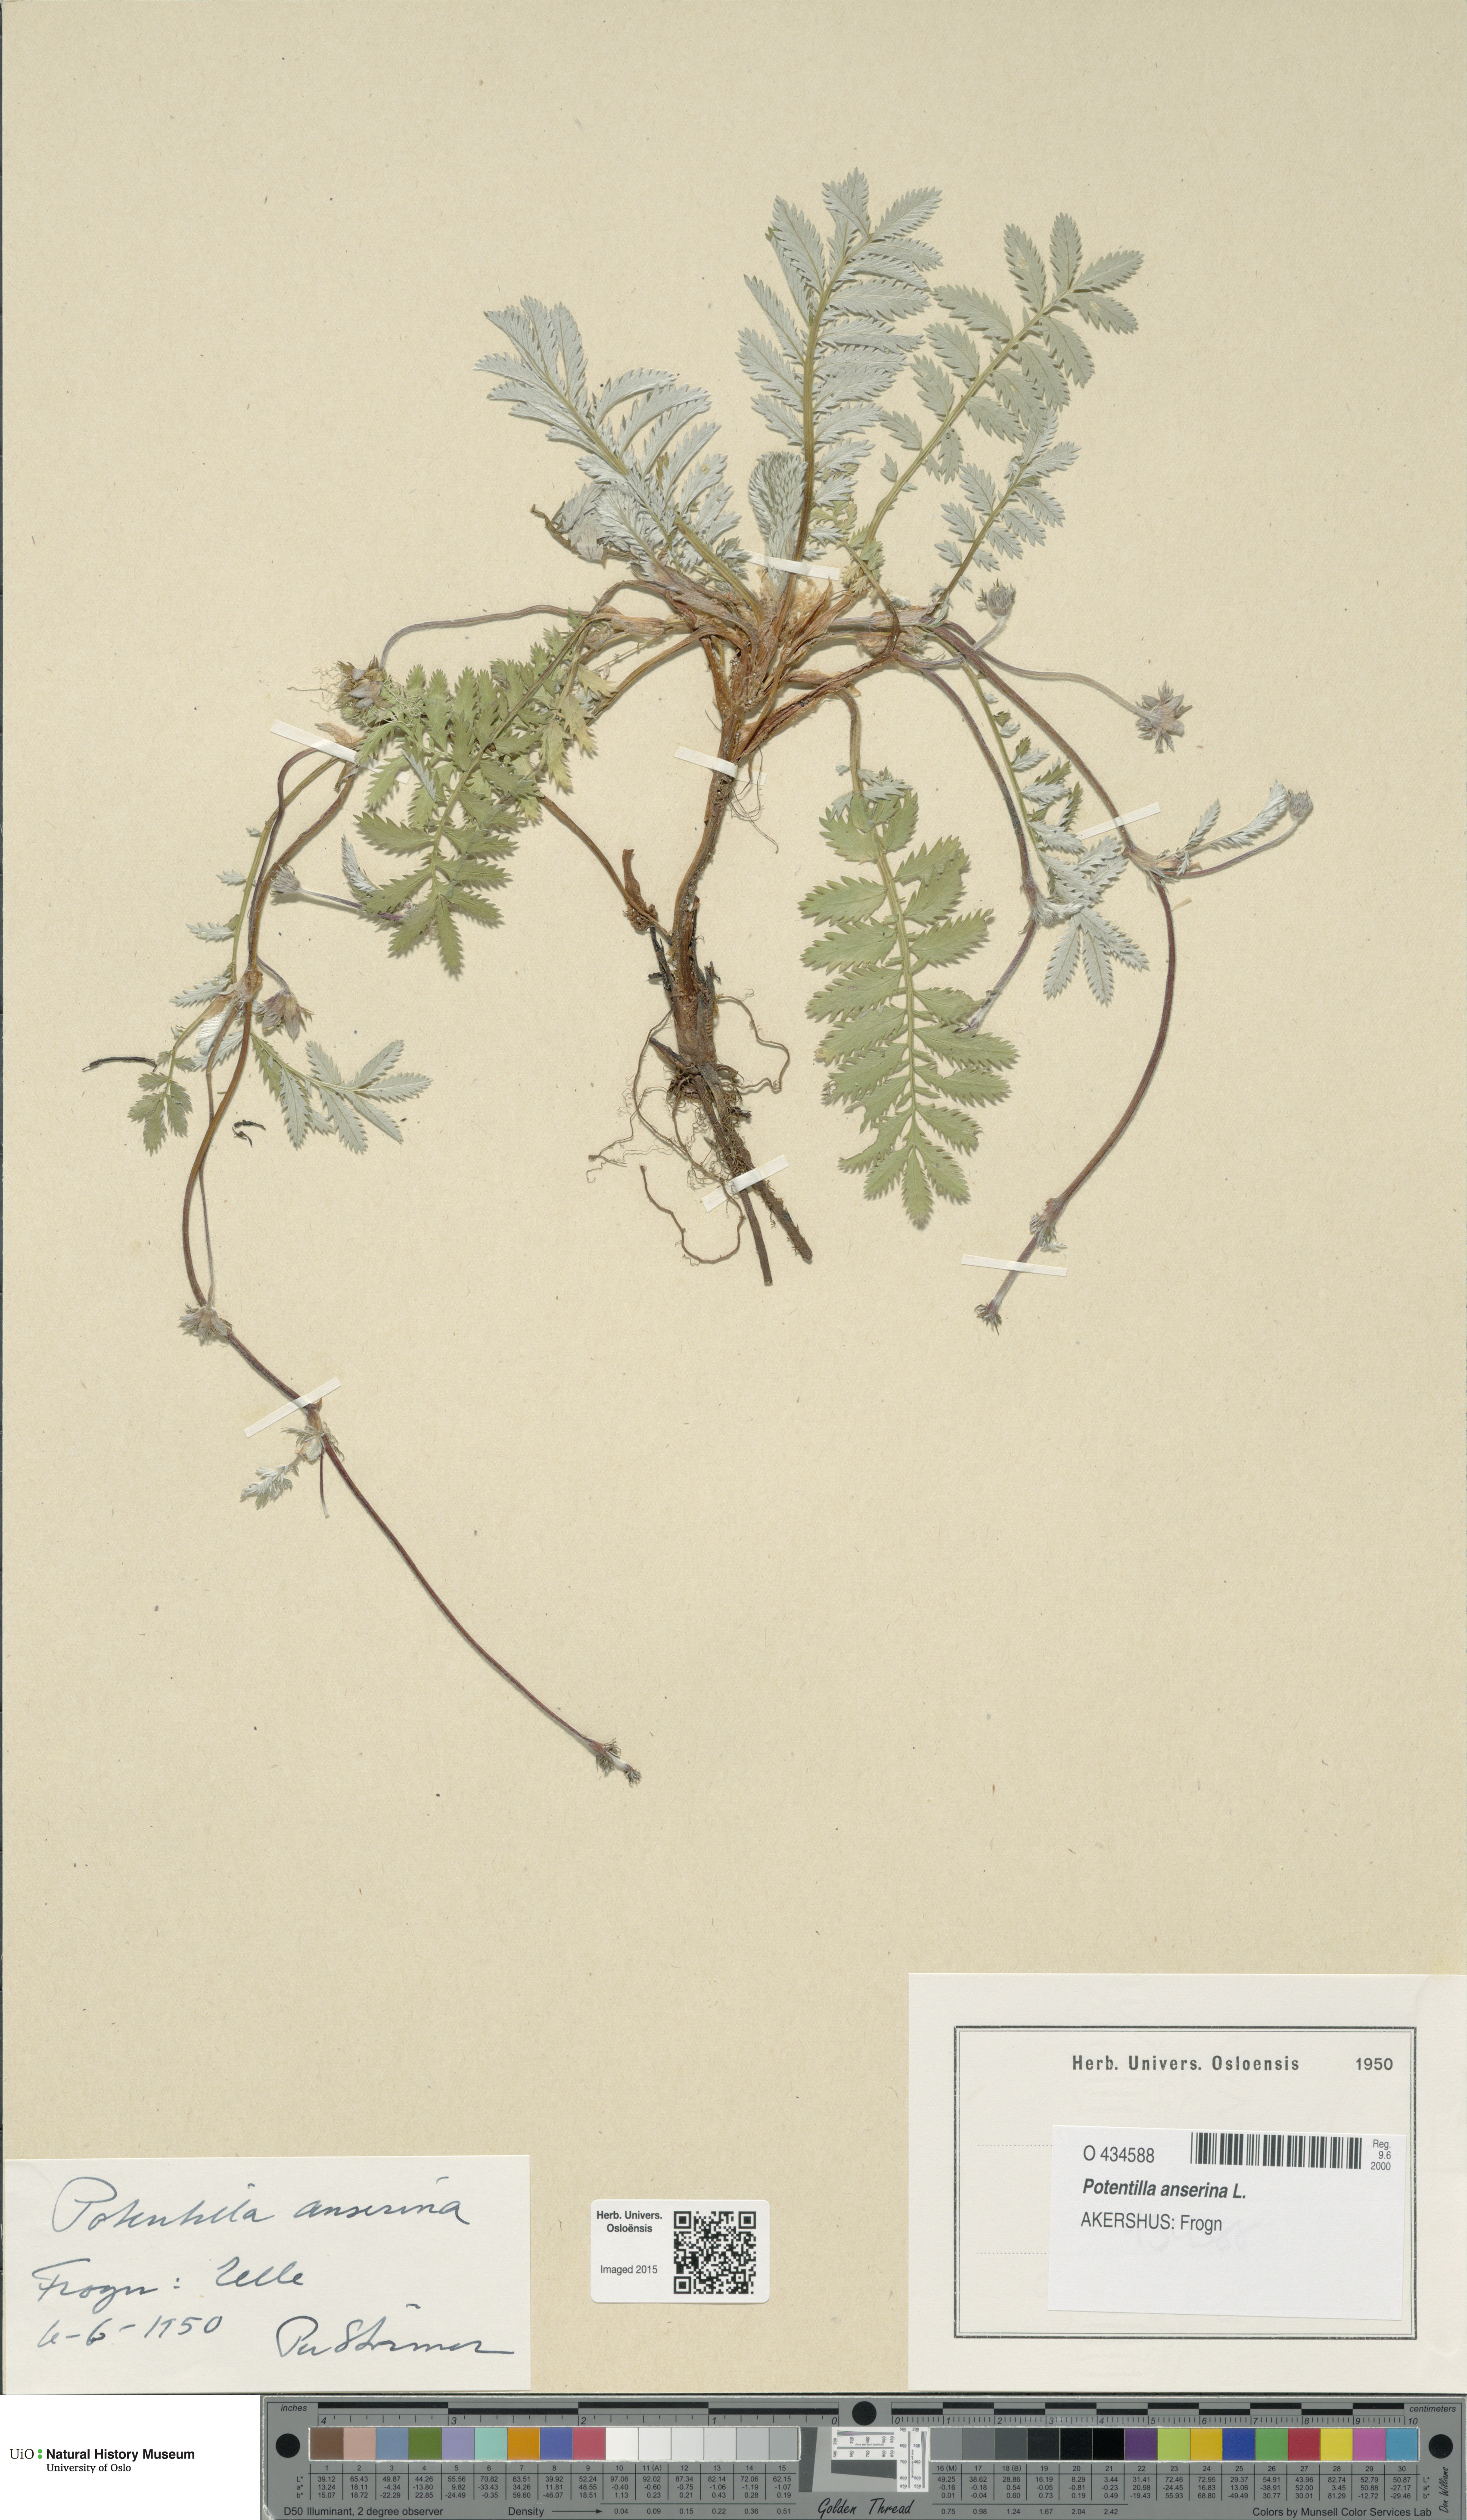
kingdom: Plantae
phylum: Tracheophyta
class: Magnoliopsida
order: Rosales
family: Rosaceae
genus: Argentina
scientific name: Argentina anserina
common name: Common silverweed
